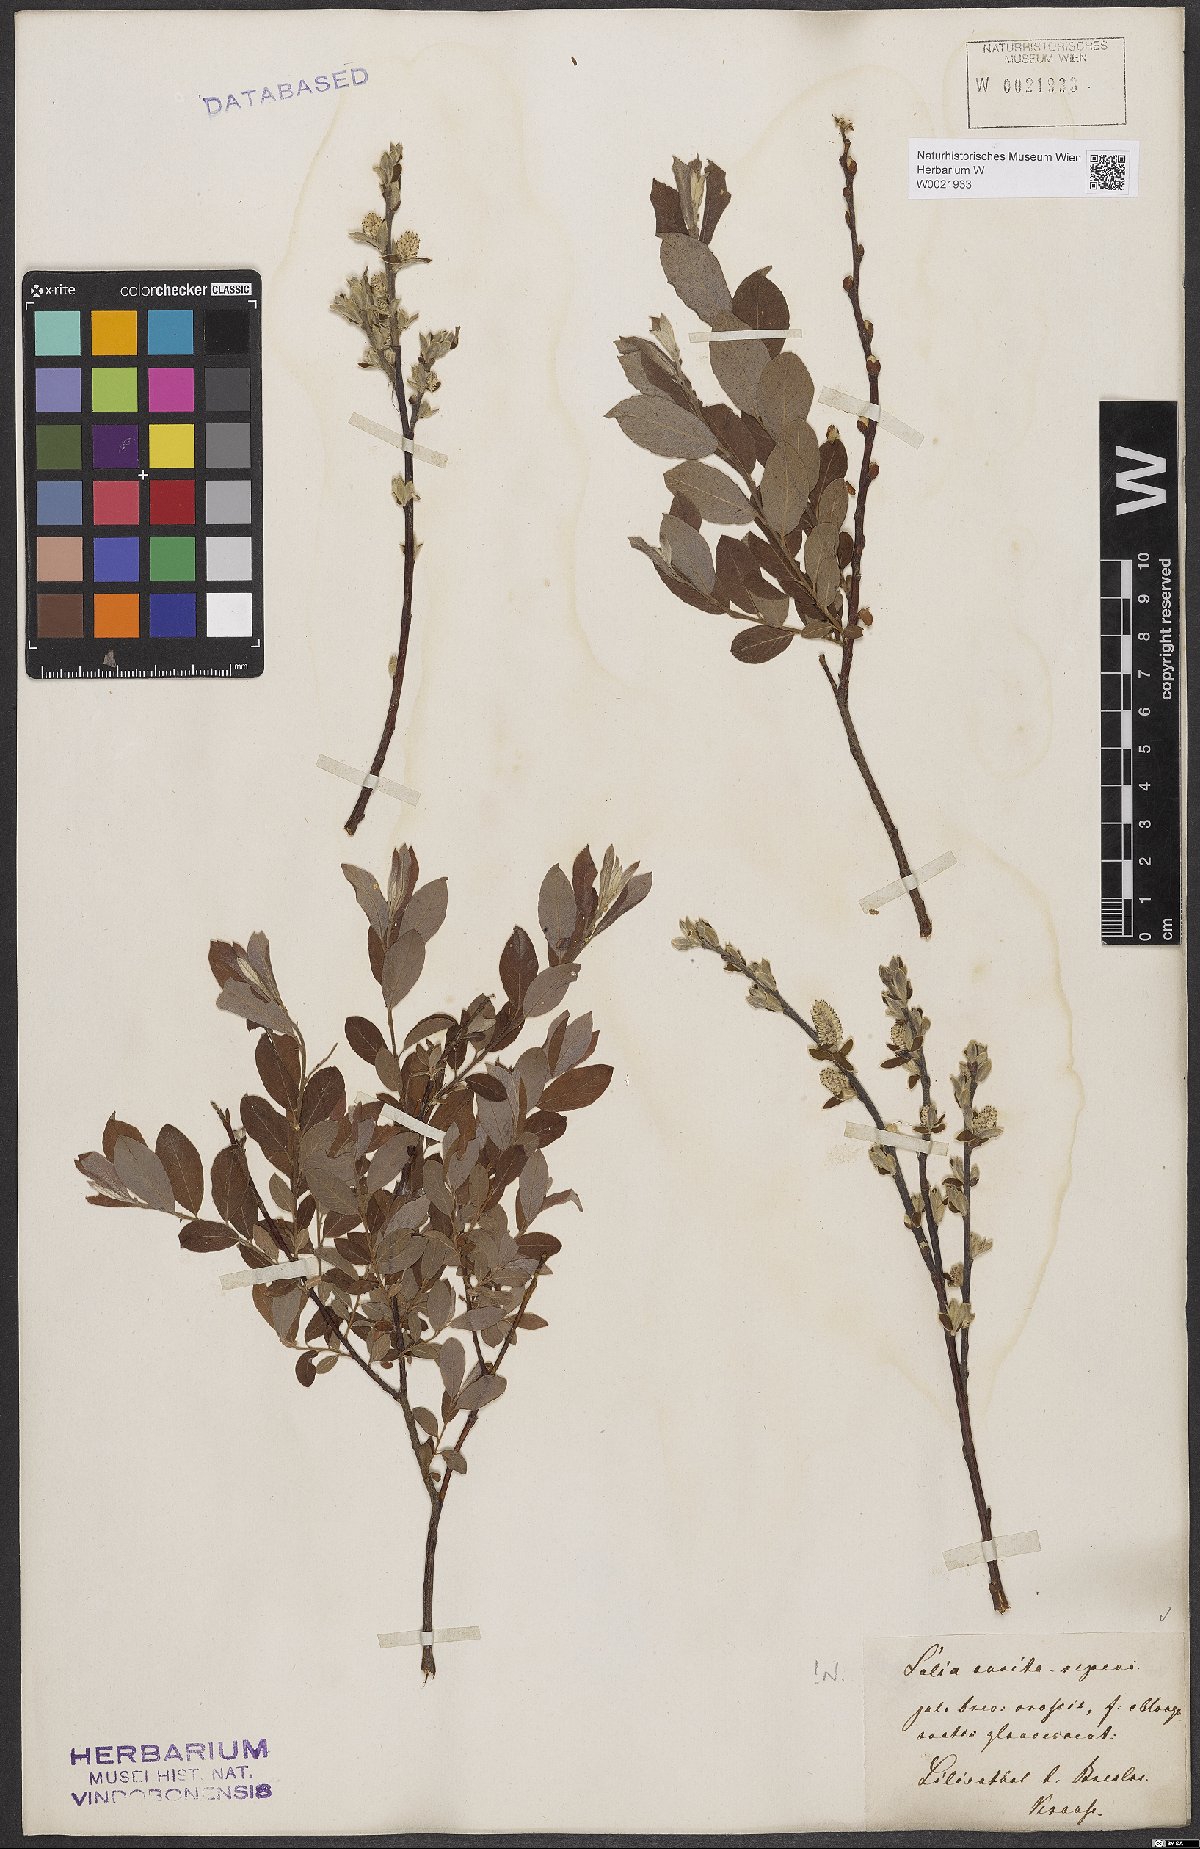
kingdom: Plantae
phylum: Tracheophyta
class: Magnoliopsida
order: Malpighiales
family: Salicaceae
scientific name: Salicaceae
